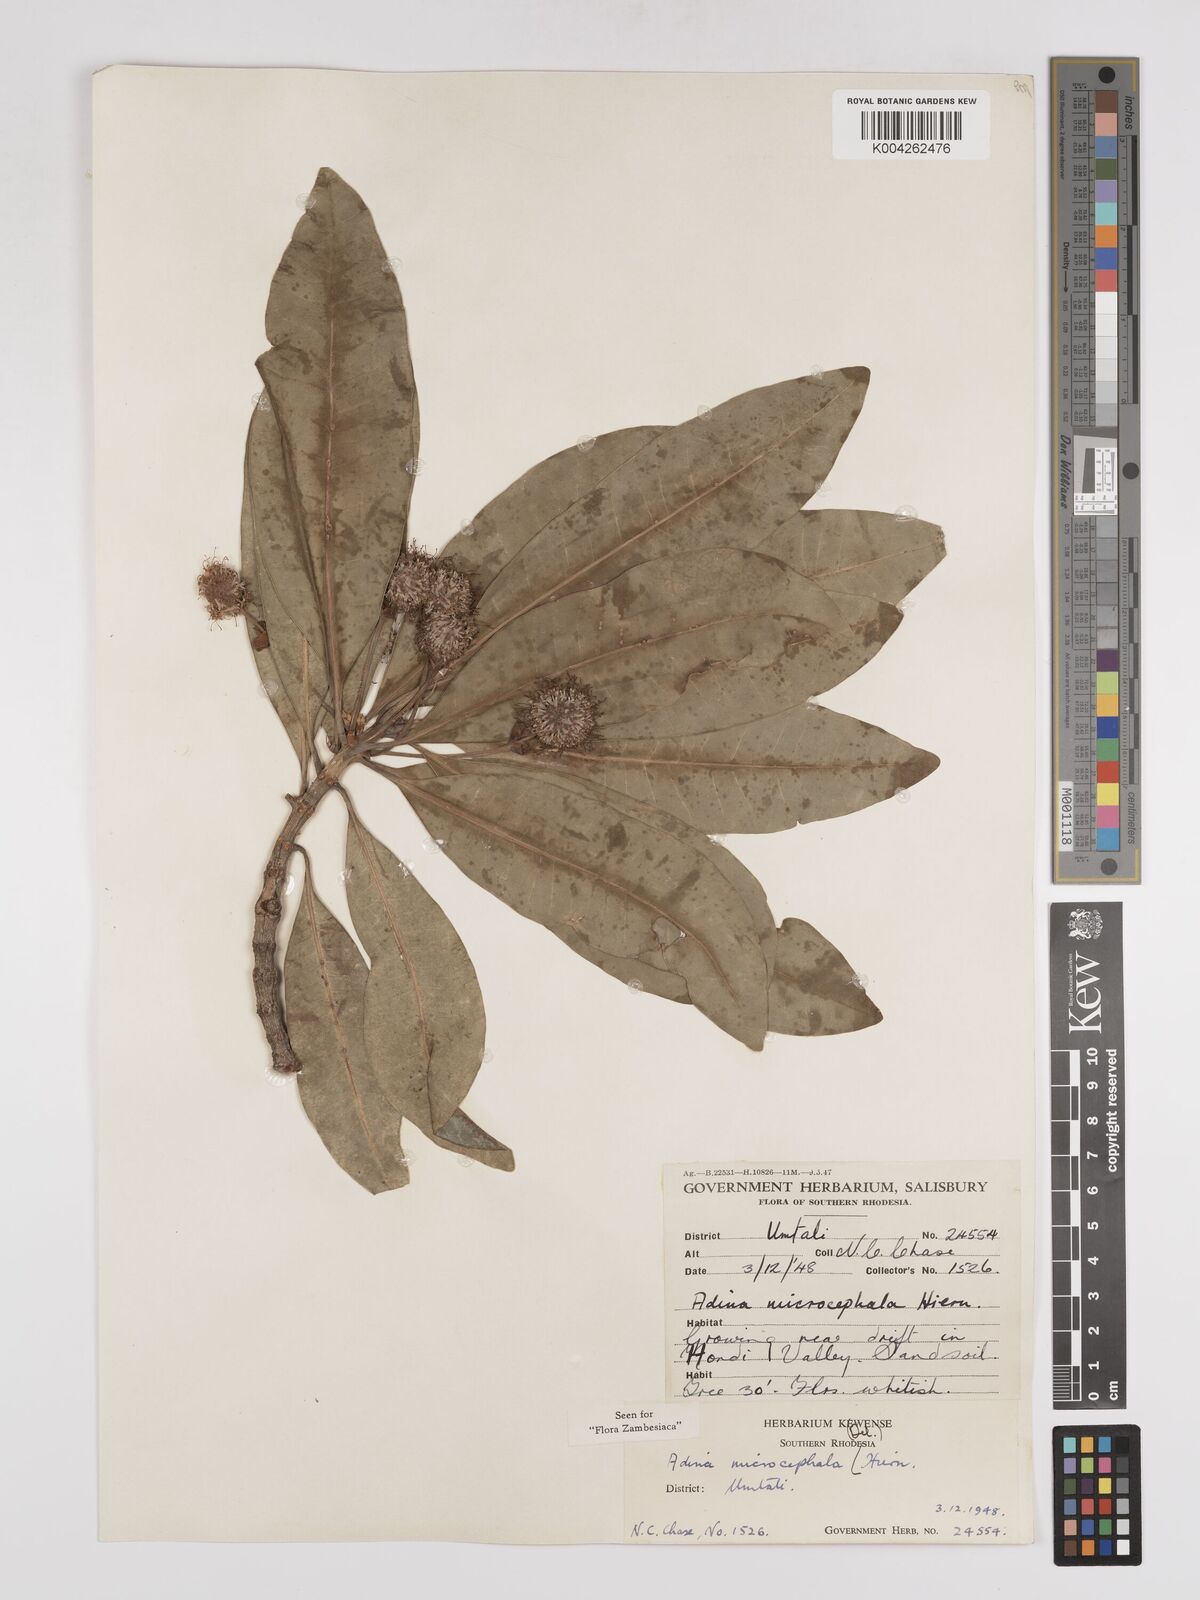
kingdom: Plantae
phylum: Tracheophyta
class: Magnoliopsida
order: Gentianales
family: Rubiaceae
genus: Breonadia
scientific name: Breonadia salicina
